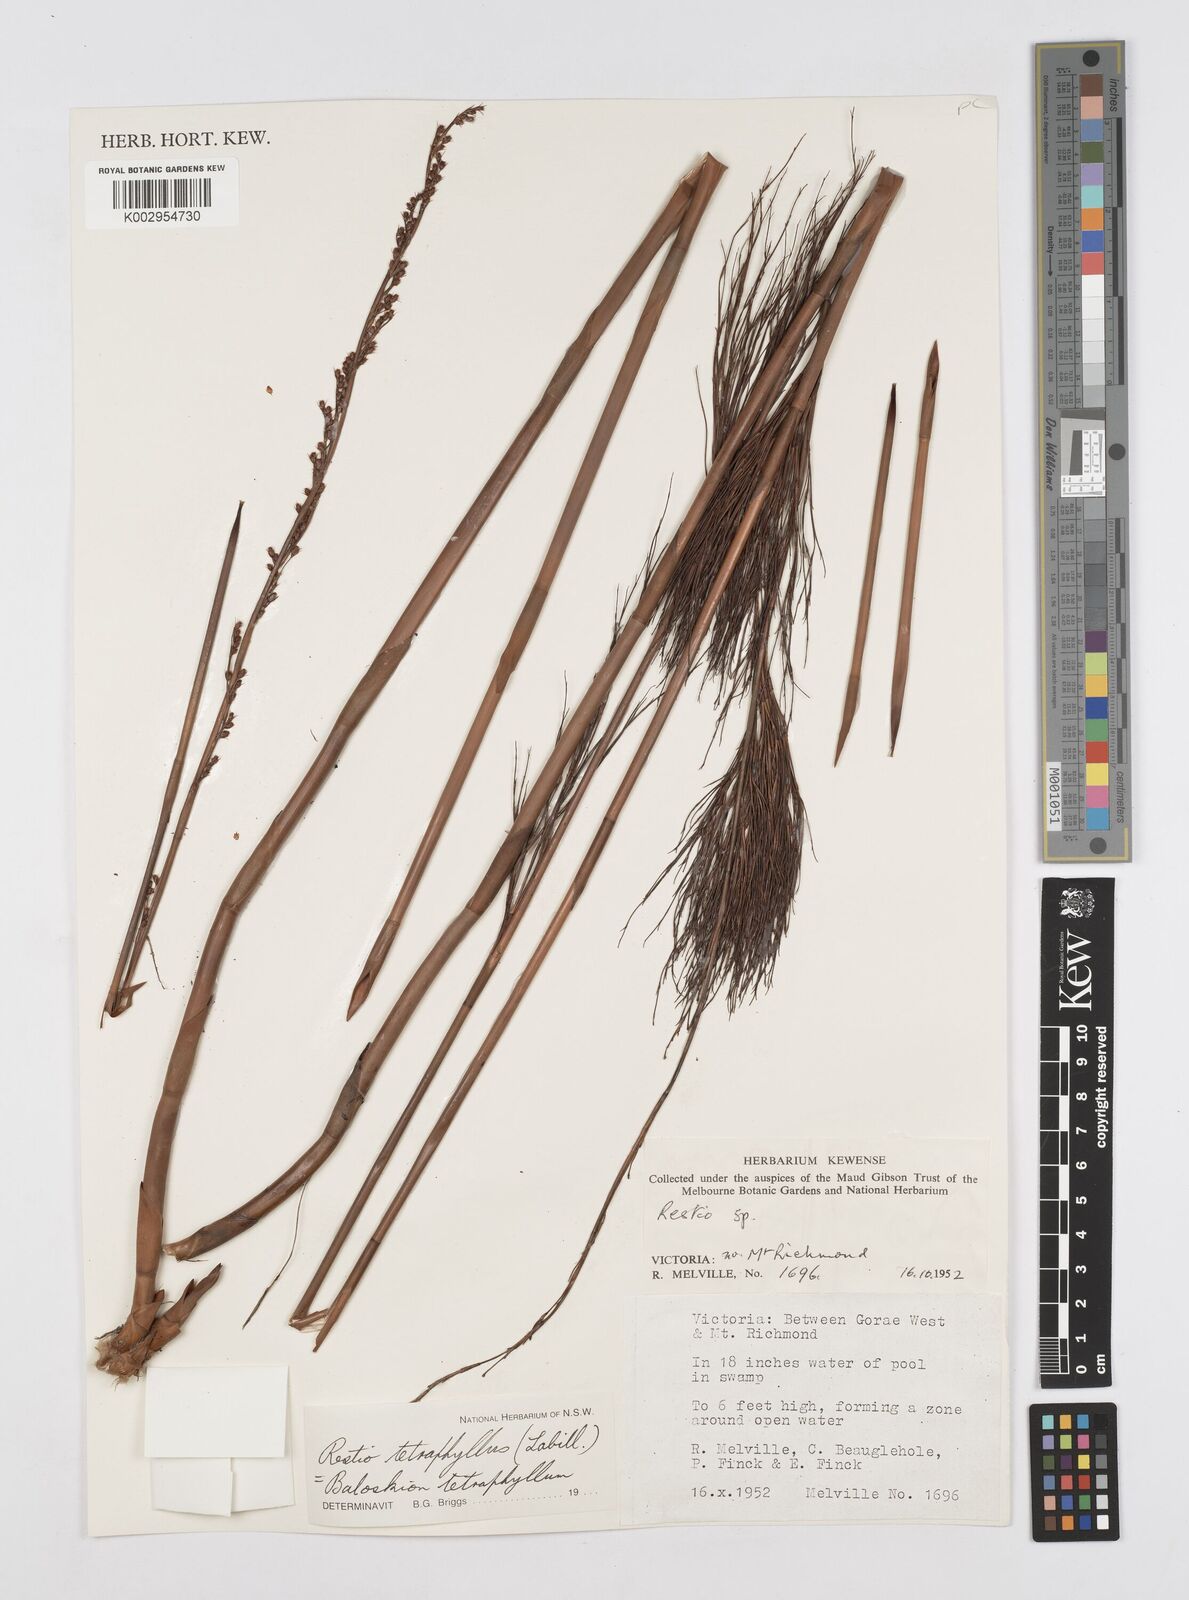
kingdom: Plantae
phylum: Tracheophyta
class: Liliopsida
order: Poales
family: Restionaceae
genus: Baloskion
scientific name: Baloskion tetraphyllum
